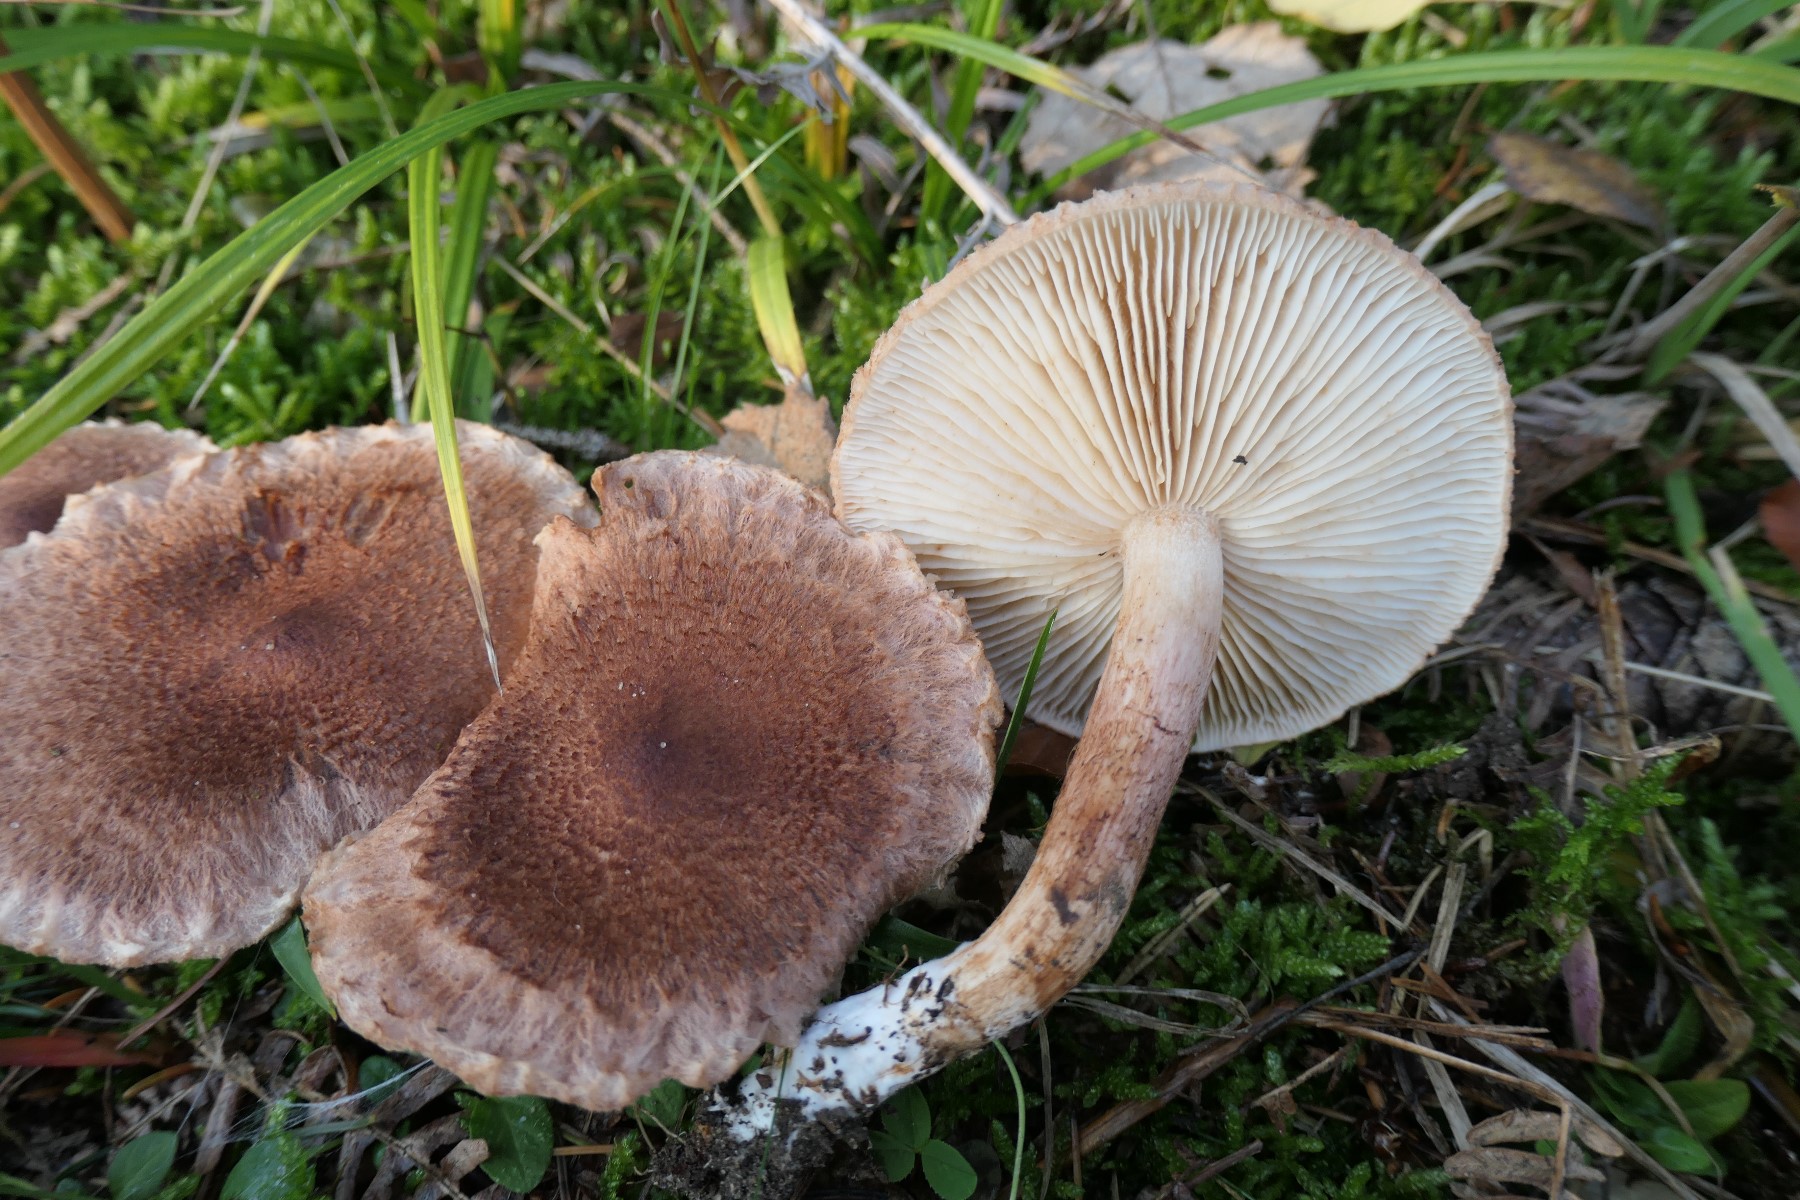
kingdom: Fungi
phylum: Basidiomycota
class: Agaricomycetes
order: Agaricales
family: Tricholomataceae
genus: Tricholoma
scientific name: Tricholoma vaccinum
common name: ko-ridderhat
